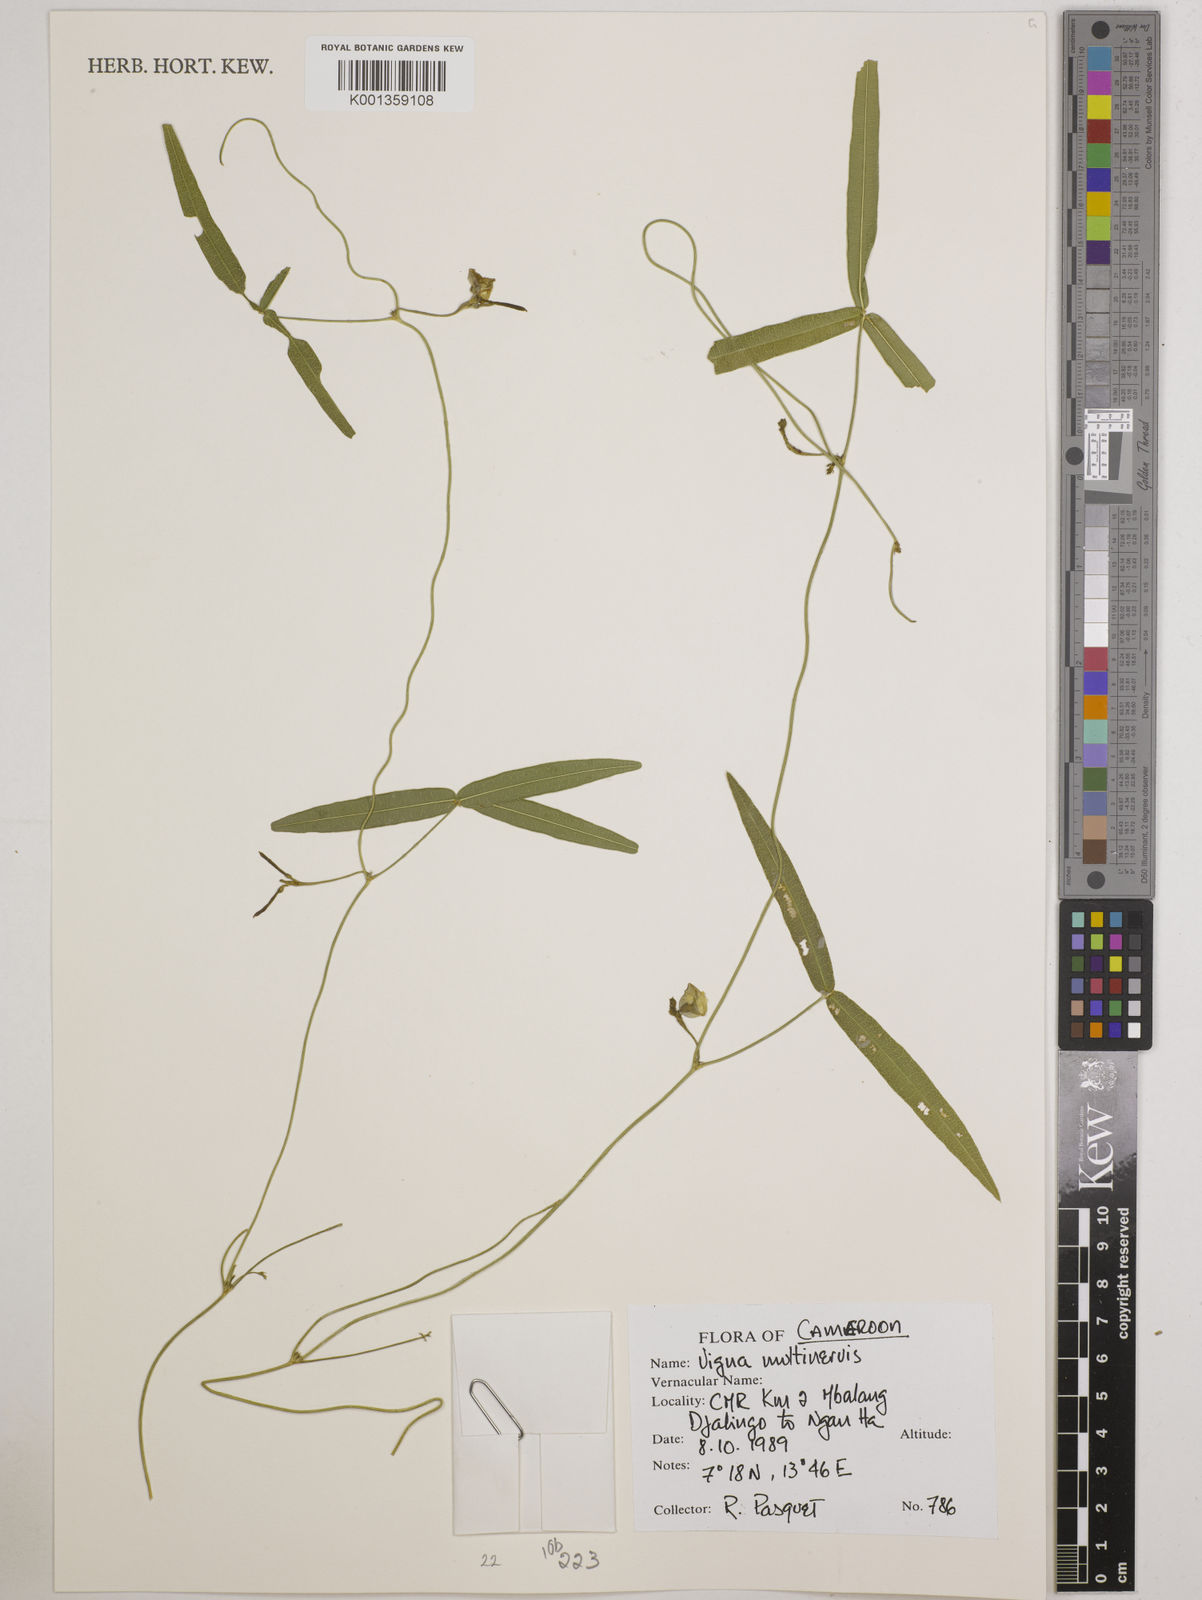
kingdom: Plantae
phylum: Tracheophyta
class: Magnoliopsida
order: Fabales
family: Fabaceae
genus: Vigna
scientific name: Vigna multinervis
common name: Fula-pulaar
